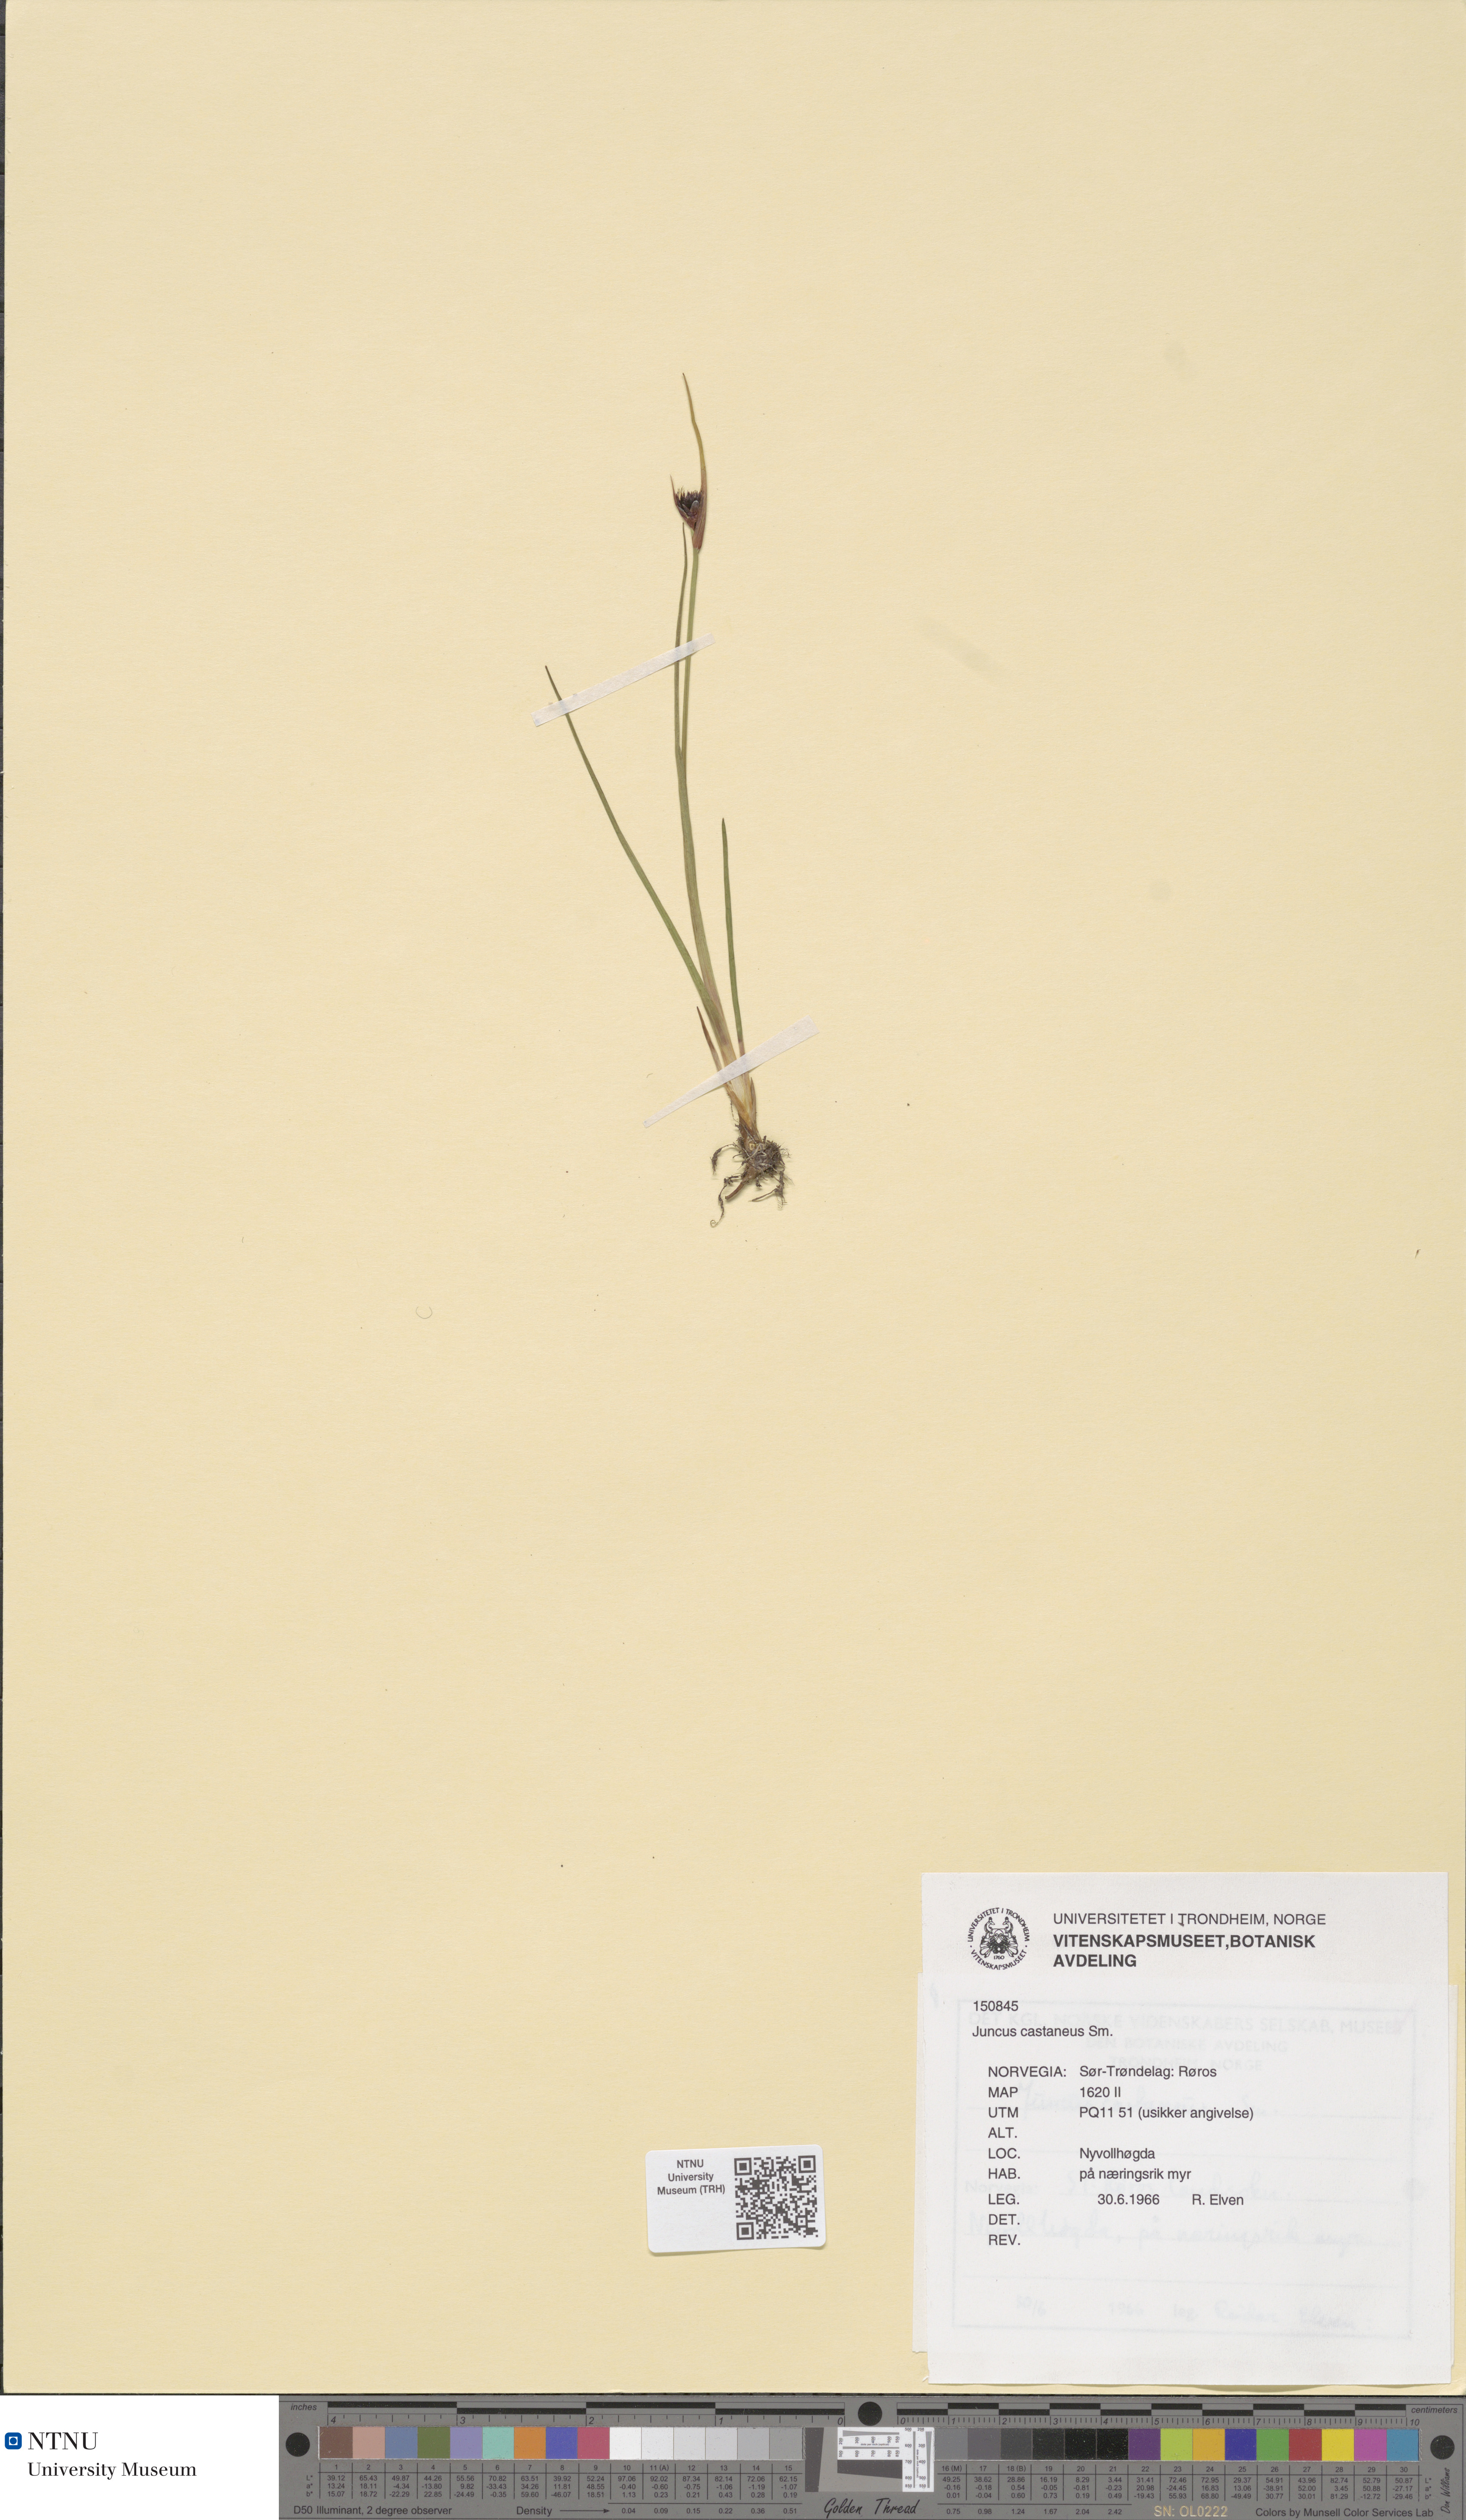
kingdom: Plantae
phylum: Tracheophyta
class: Liliopsida
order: Poales
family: Juncaceae
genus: Juncus
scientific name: Juncus castaneus
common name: Chestnut rush
